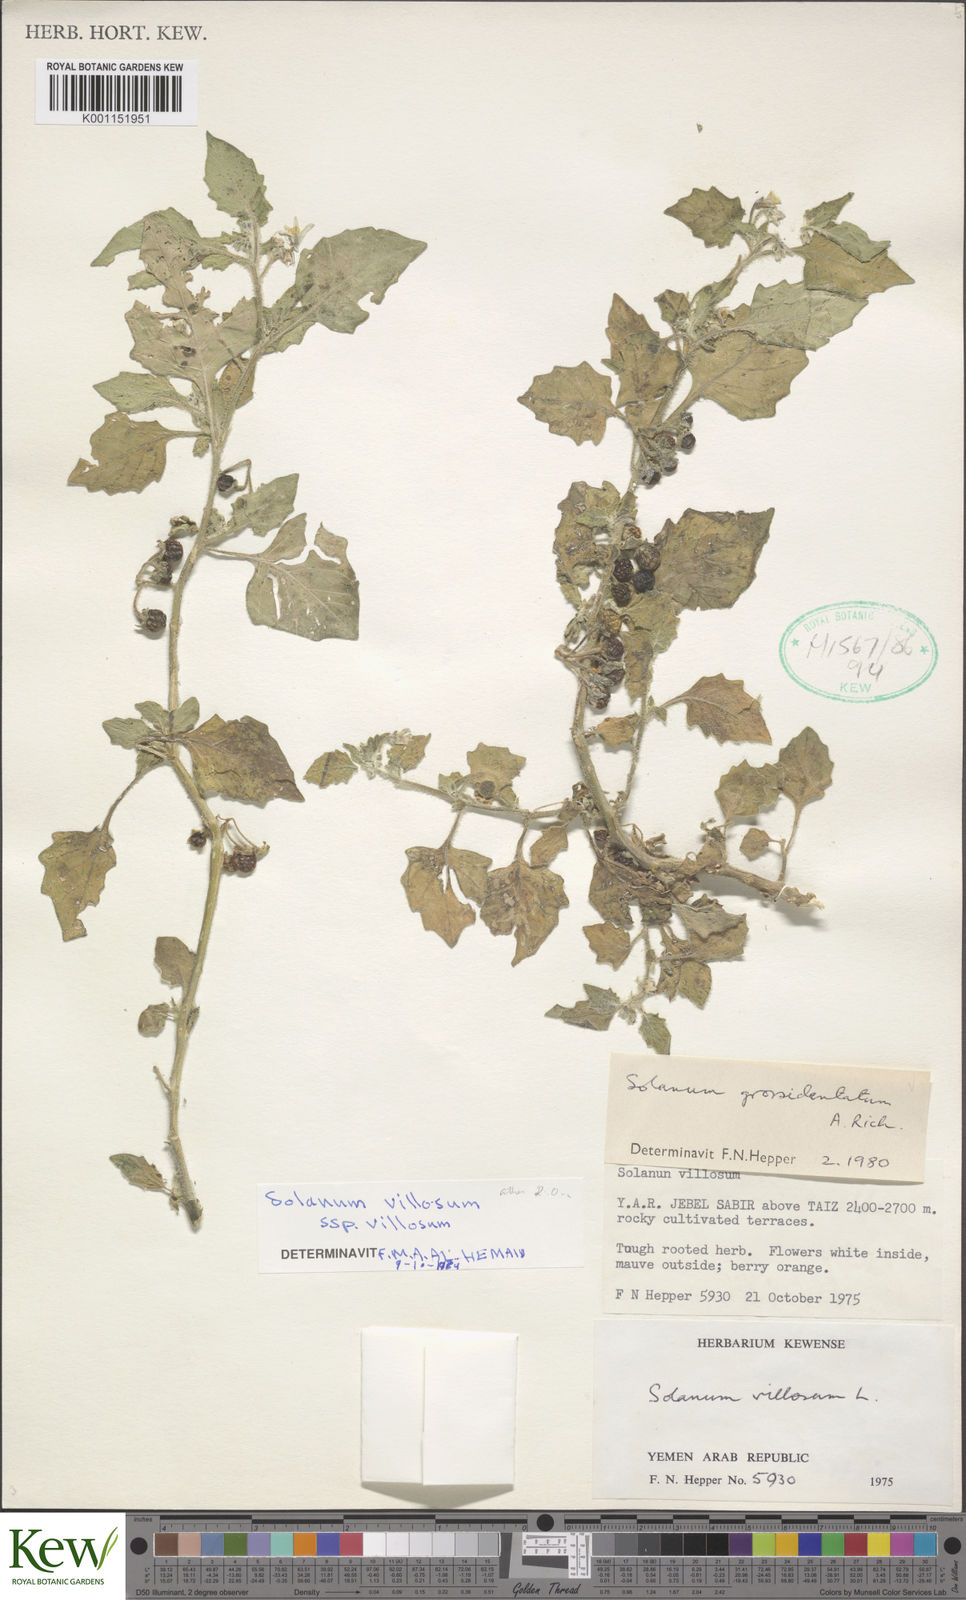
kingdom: Plantae
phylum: Tracheophyta
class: Magnoliopsida
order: Solanales
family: Solanaceae
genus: Solanum
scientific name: Solanum
